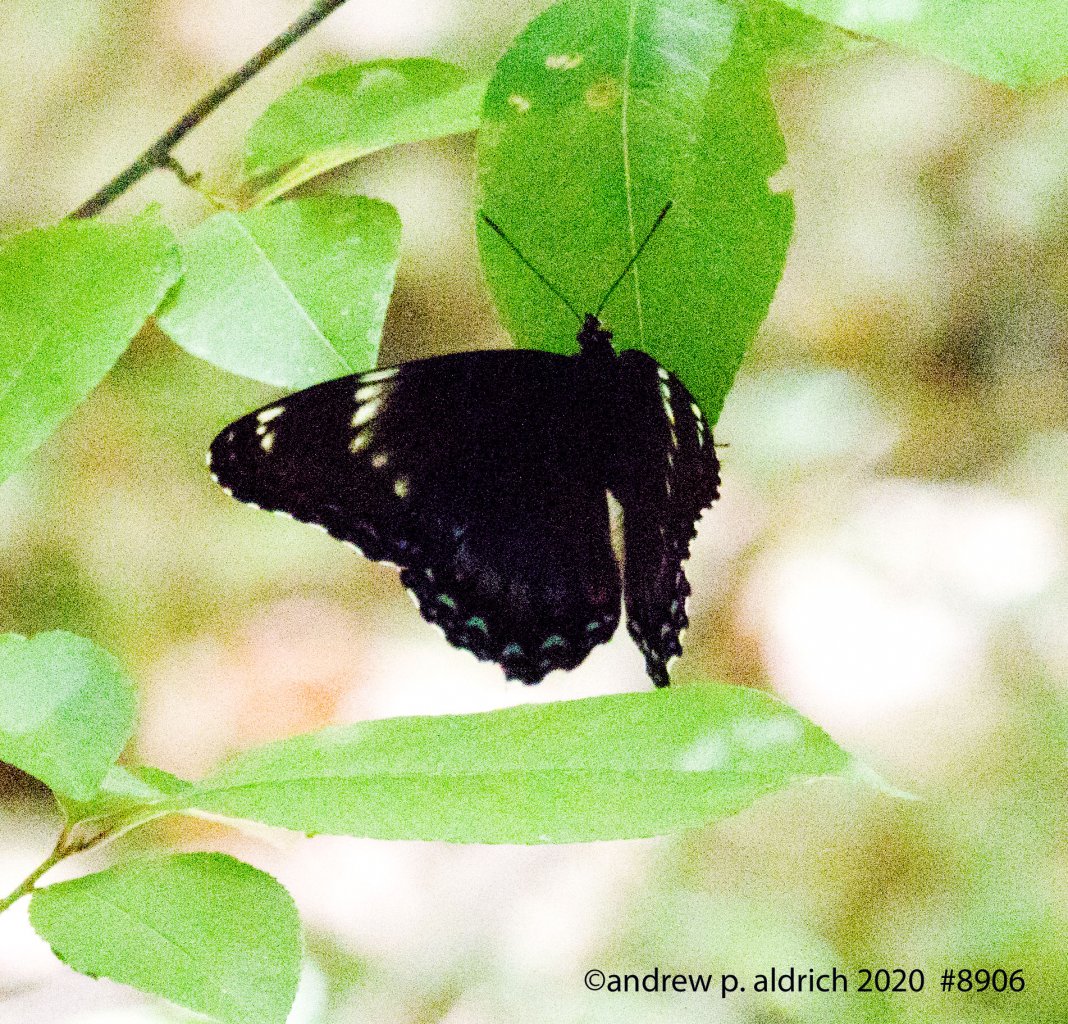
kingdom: Animalia
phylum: Arthropoda
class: Insecta
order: Lepidoptera
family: Nymphalidae
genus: Limenitis
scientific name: Limenitis
